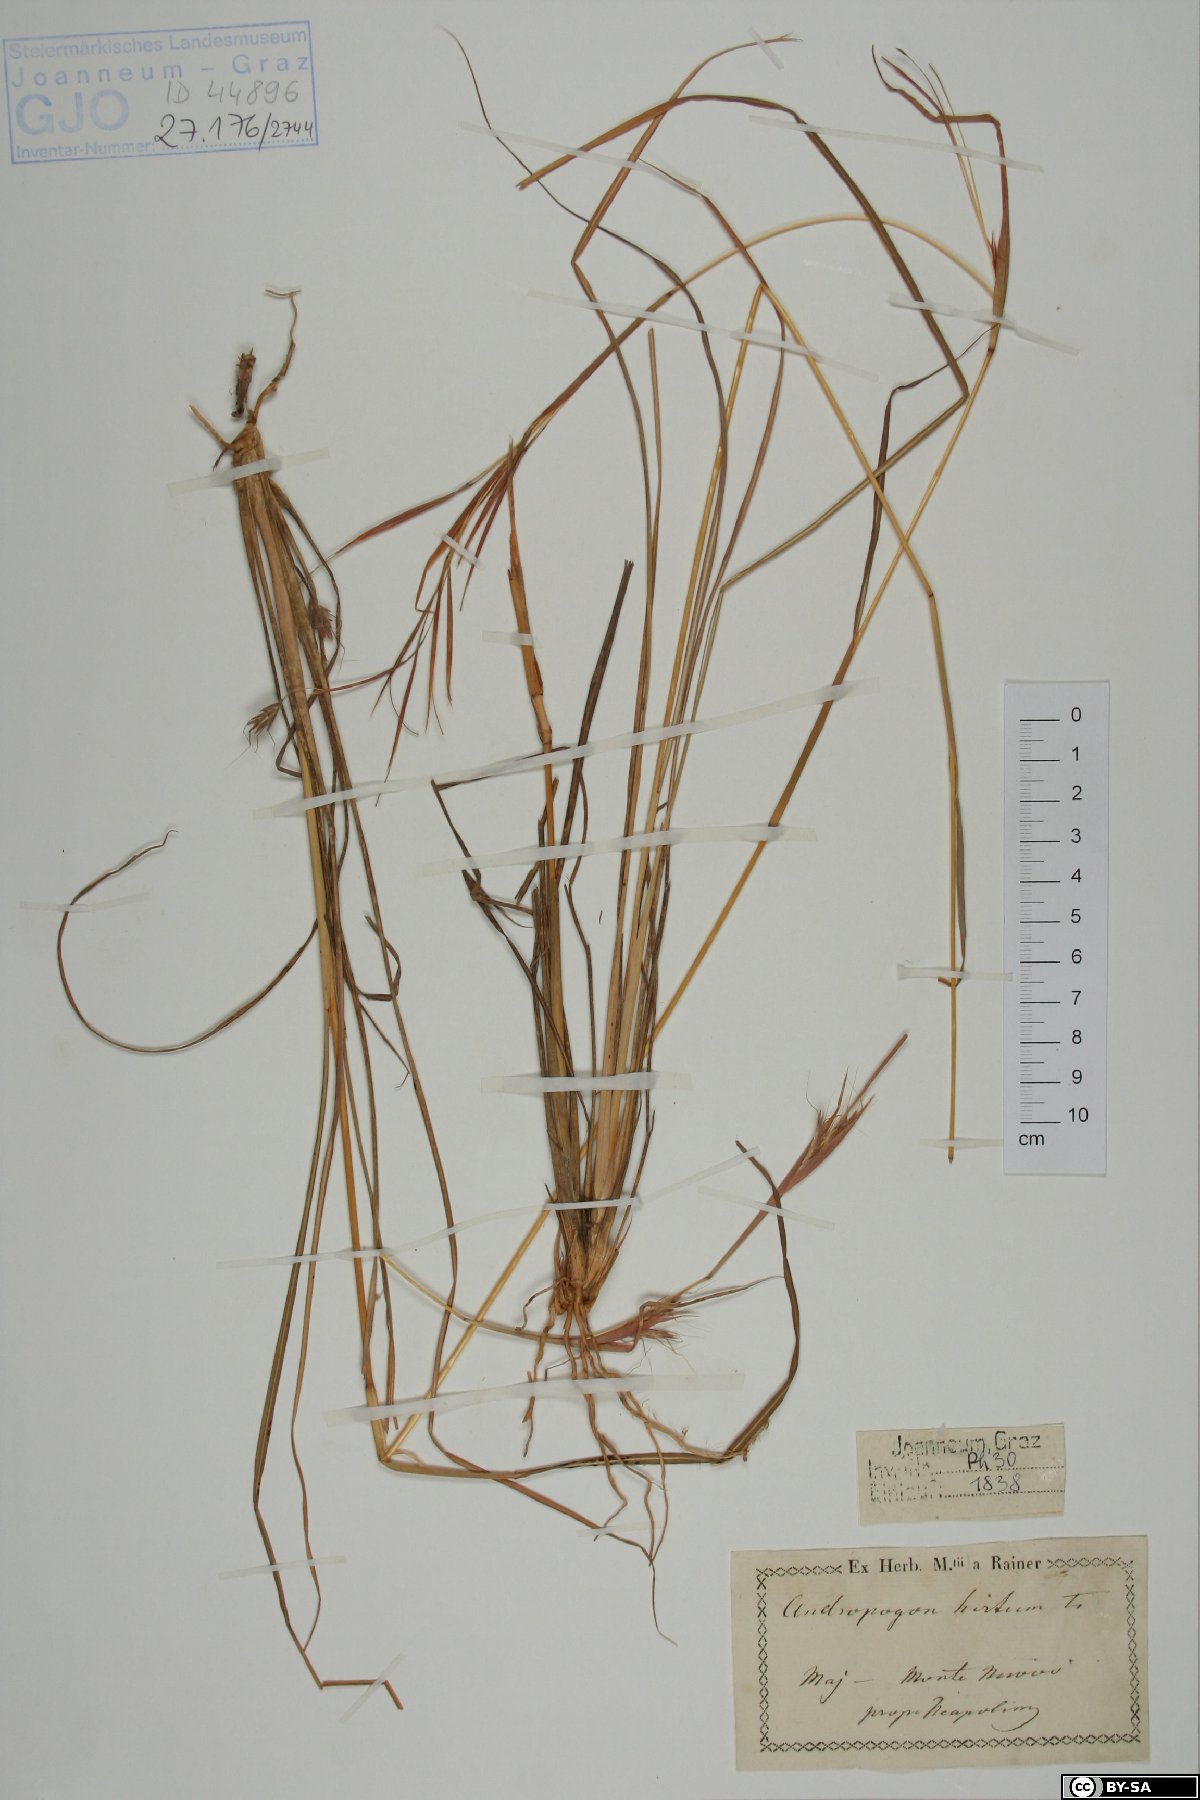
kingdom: Plantae
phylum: Tracheophyta
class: Liliopsida
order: Poales
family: Poaceae
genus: Hyparrhenia
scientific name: Hyparrhenia hirta
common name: Thatching grass
